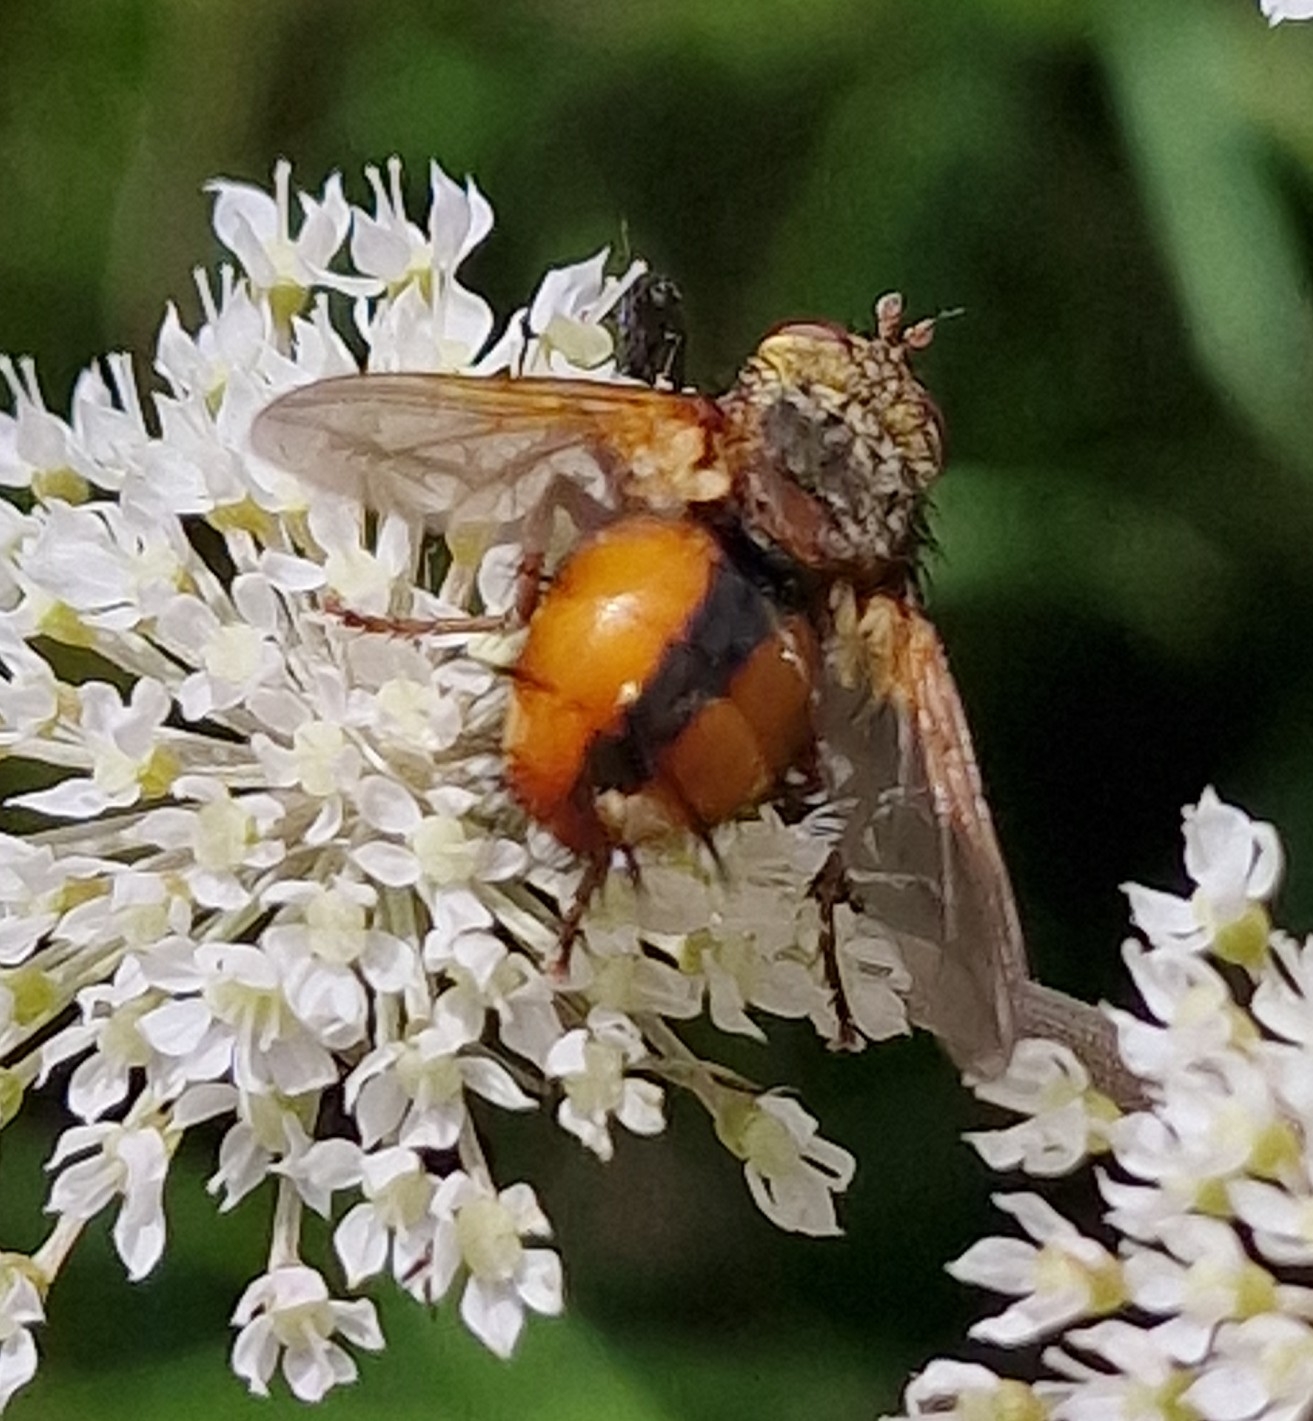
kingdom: Animalia
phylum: Arthropoda
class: Insecta
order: Diptera
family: Tachinidae
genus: Tachina
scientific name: Tachina fera
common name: Mellemfluen oskar
